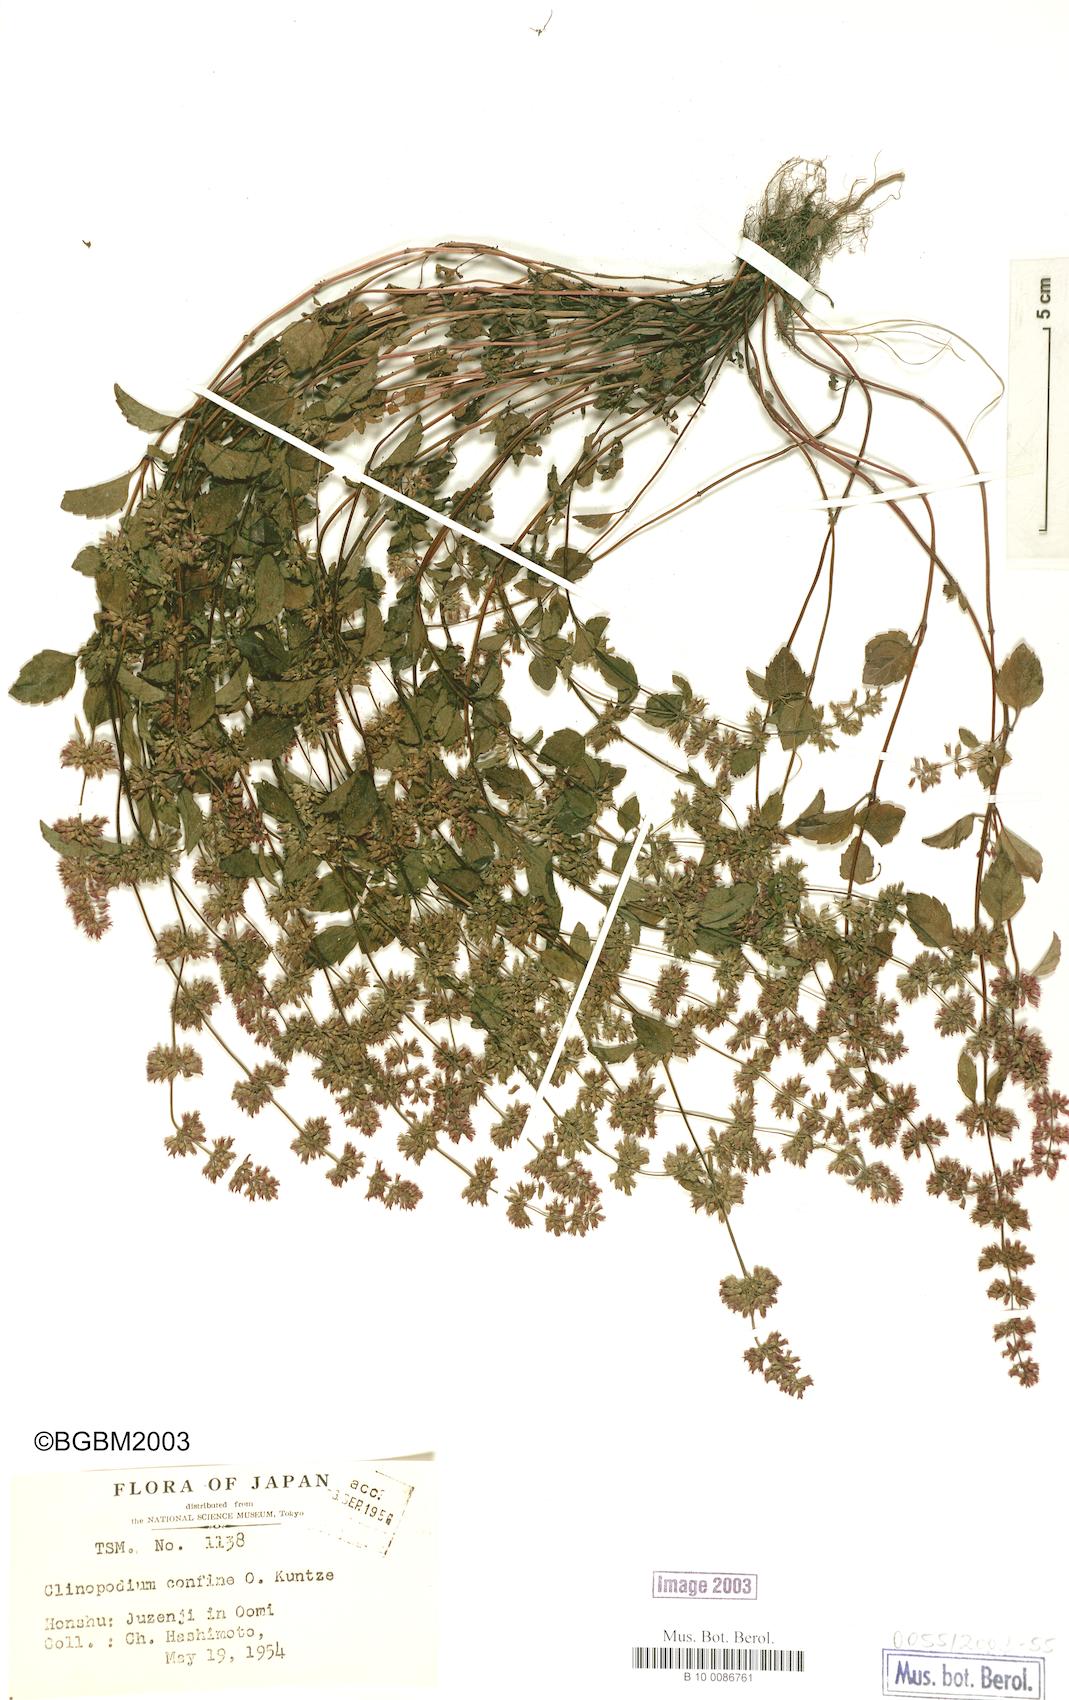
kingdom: Plantae
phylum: Tracheophyta
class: Magnoliopsida
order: Lamiales
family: Lamiaceae
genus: Clinopodium
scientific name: Clinopodium gracile
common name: Slender wild basil
